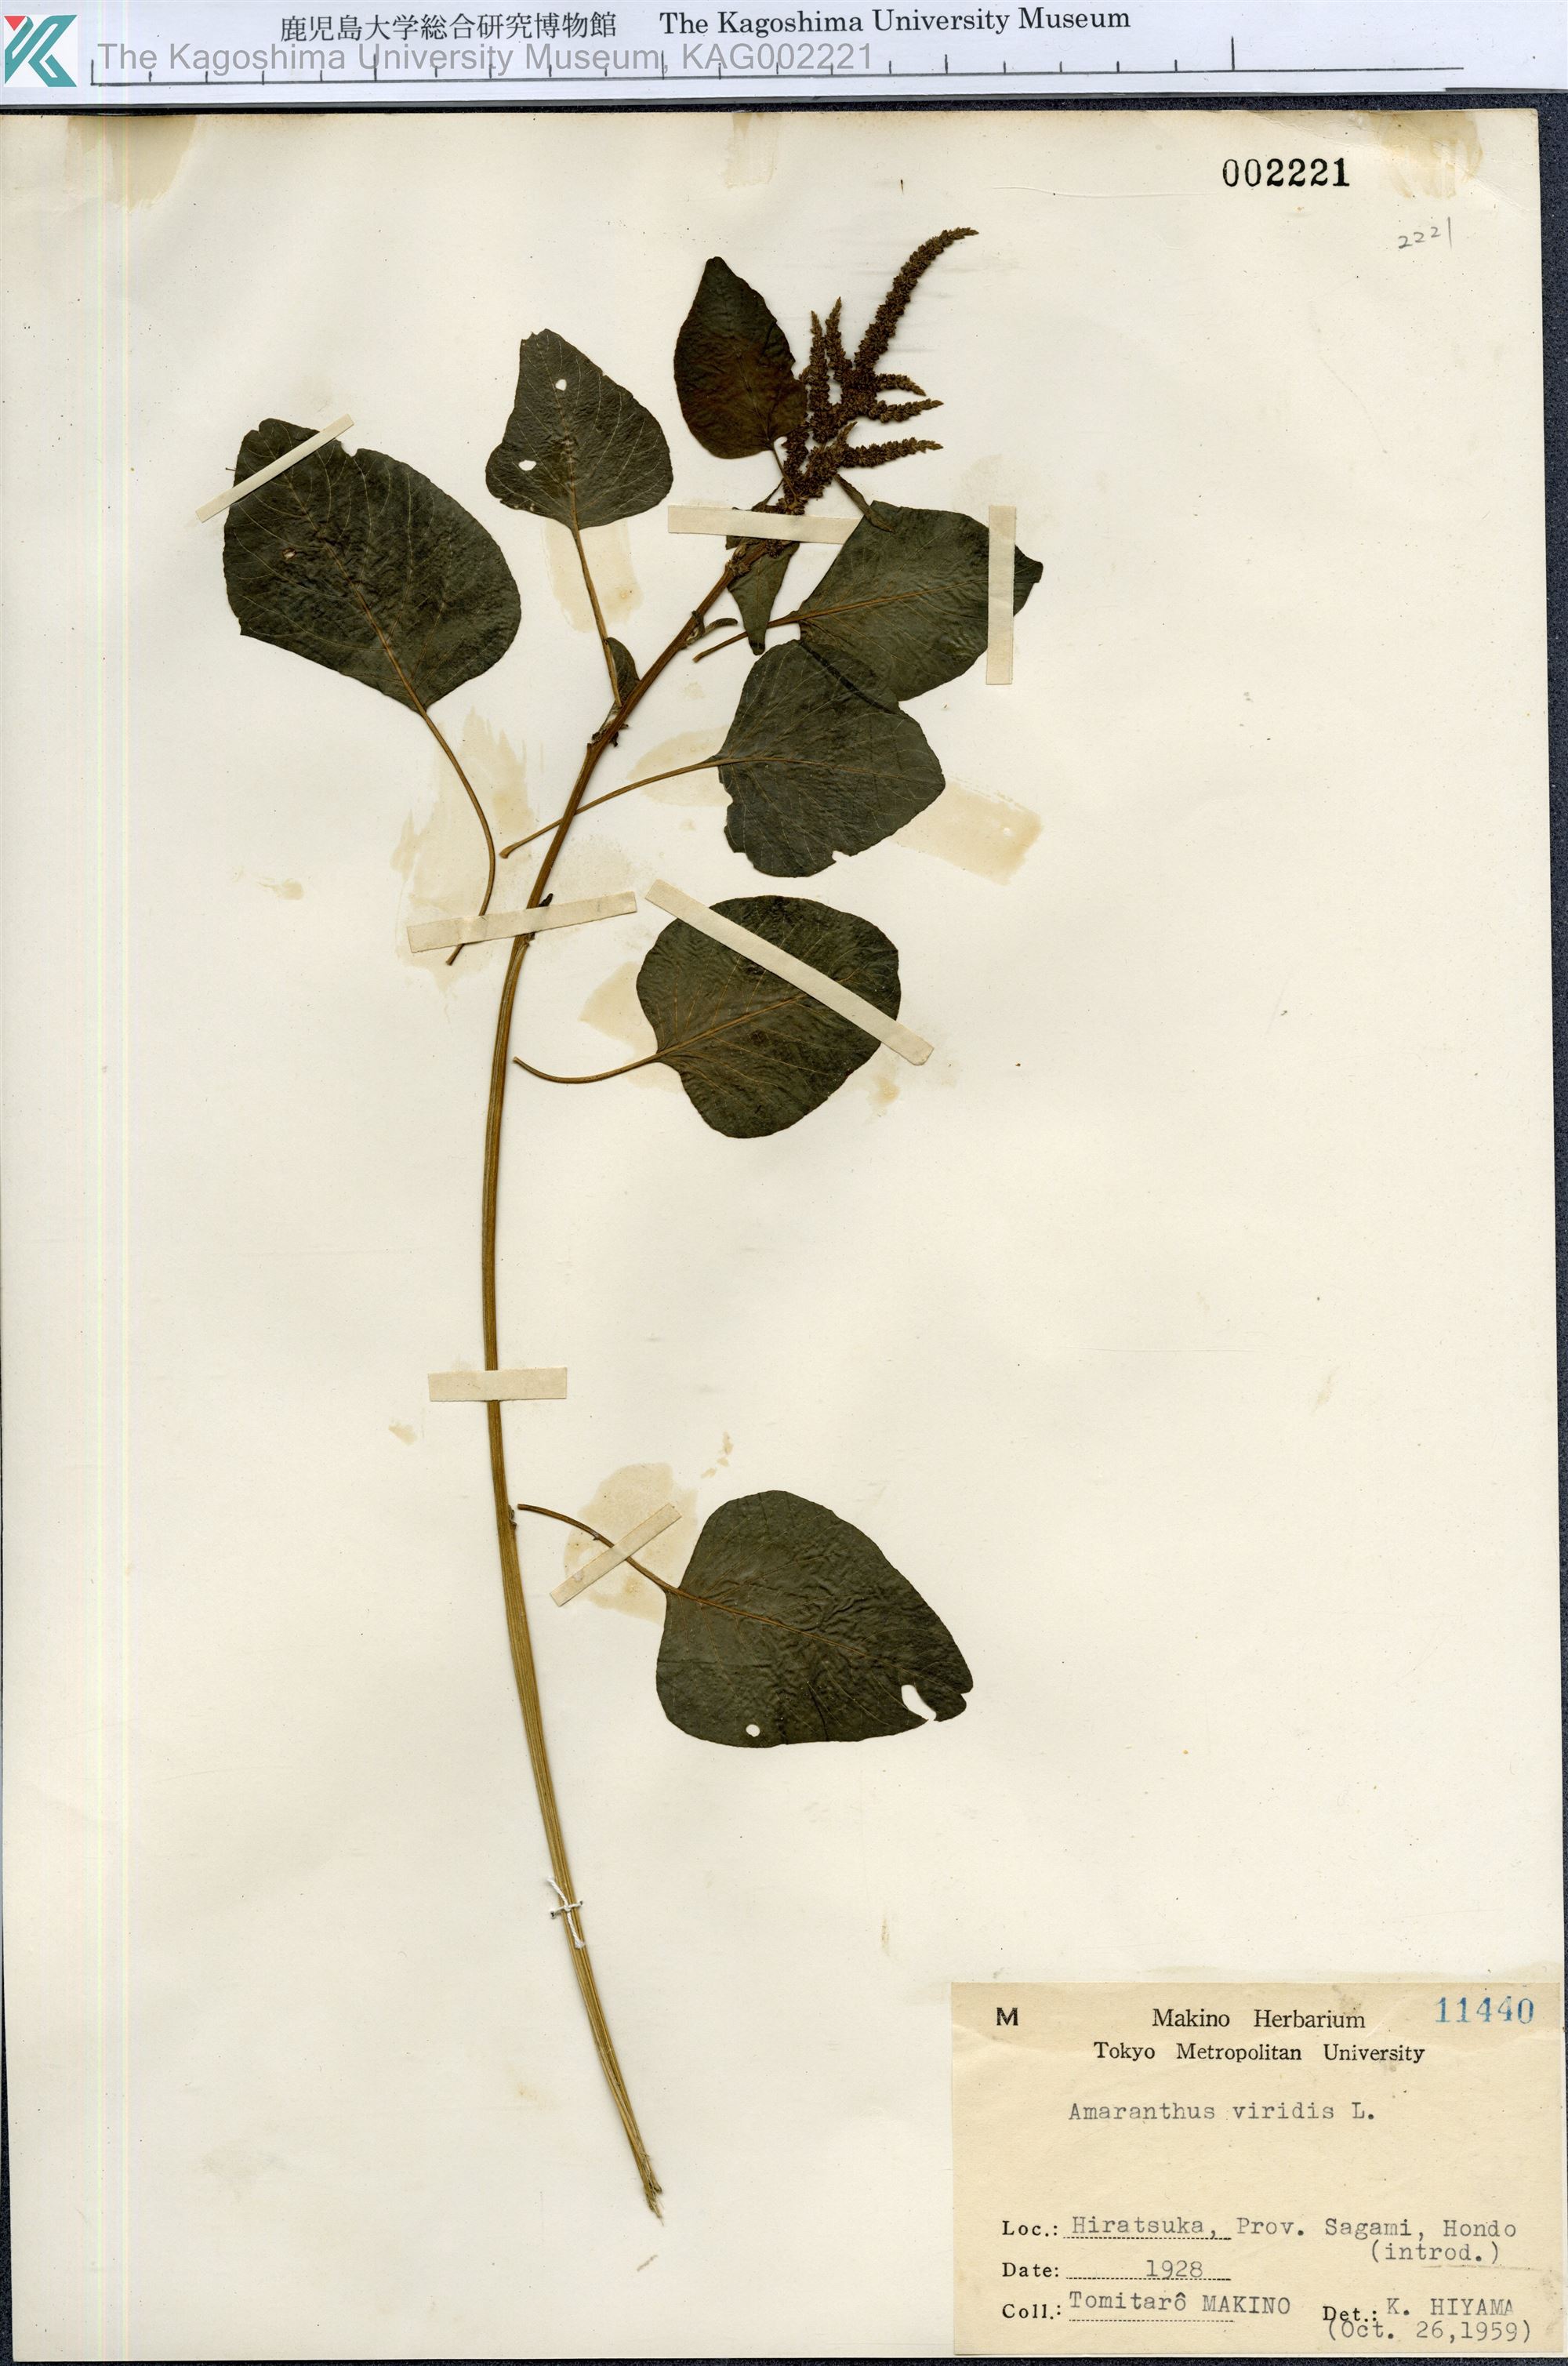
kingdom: Plantae
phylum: Tracheophyta
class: Magnoliopsida
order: Caryophyllales
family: Amaranthaceae
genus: Amaranthus
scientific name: Amaranthus viridis
